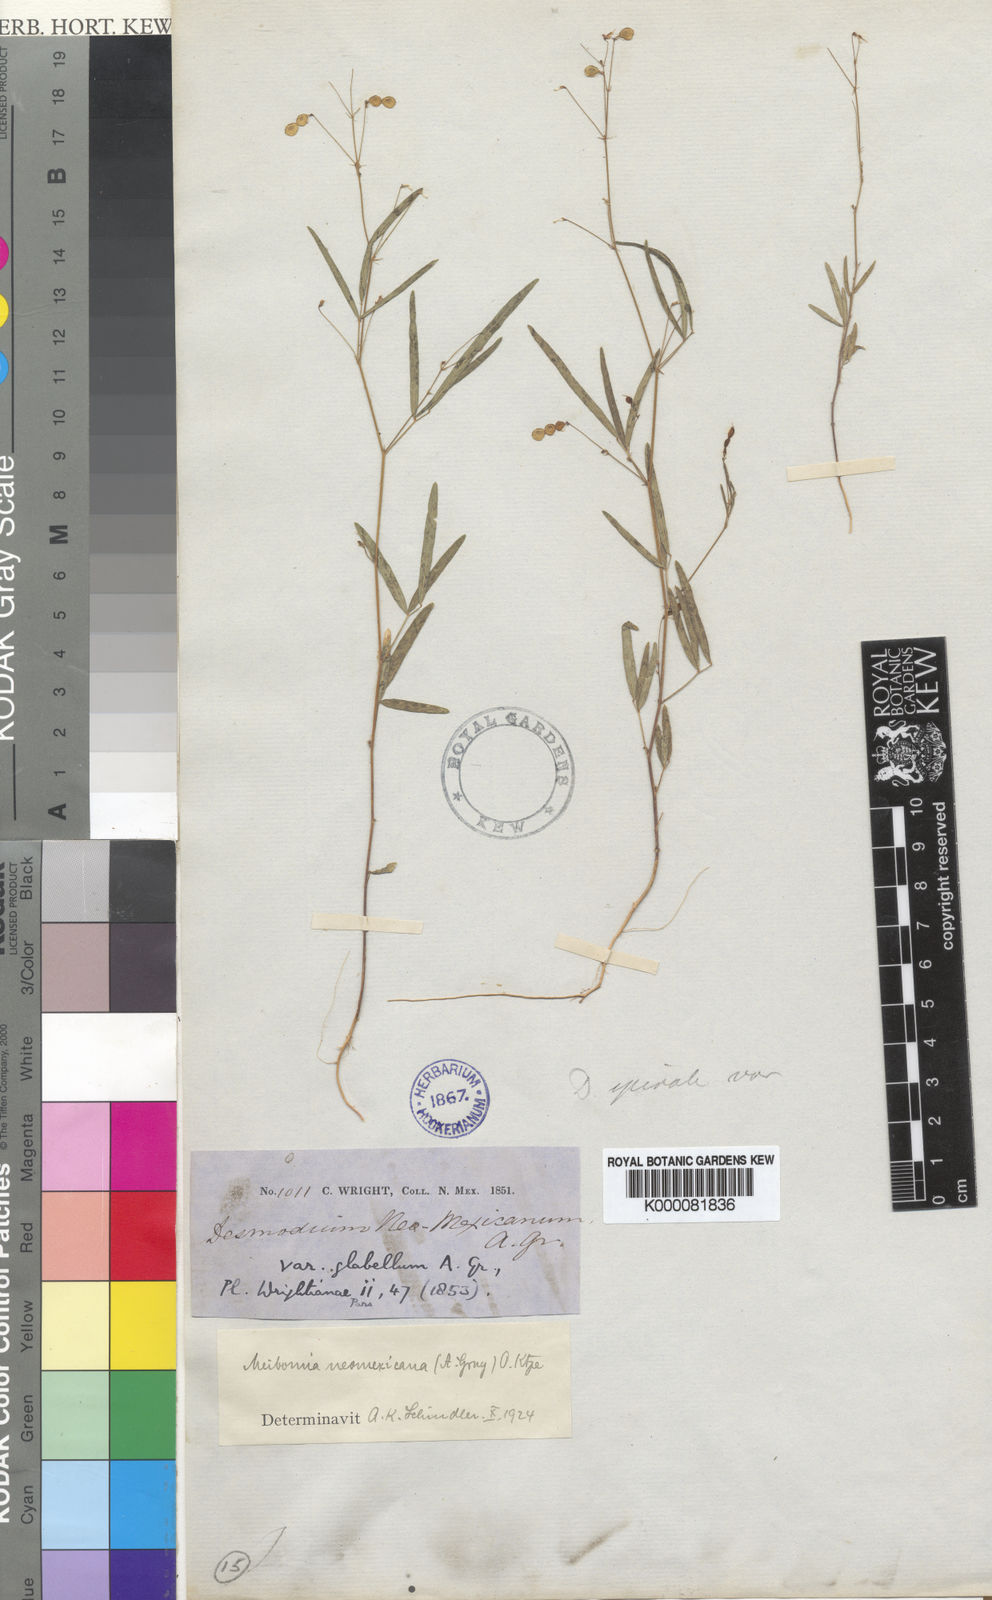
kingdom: Plantae
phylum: Tracheophyta
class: Magnoliopsida
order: Fabales
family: Fabaceae
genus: Desmodium
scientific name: Desmodium procumbens
